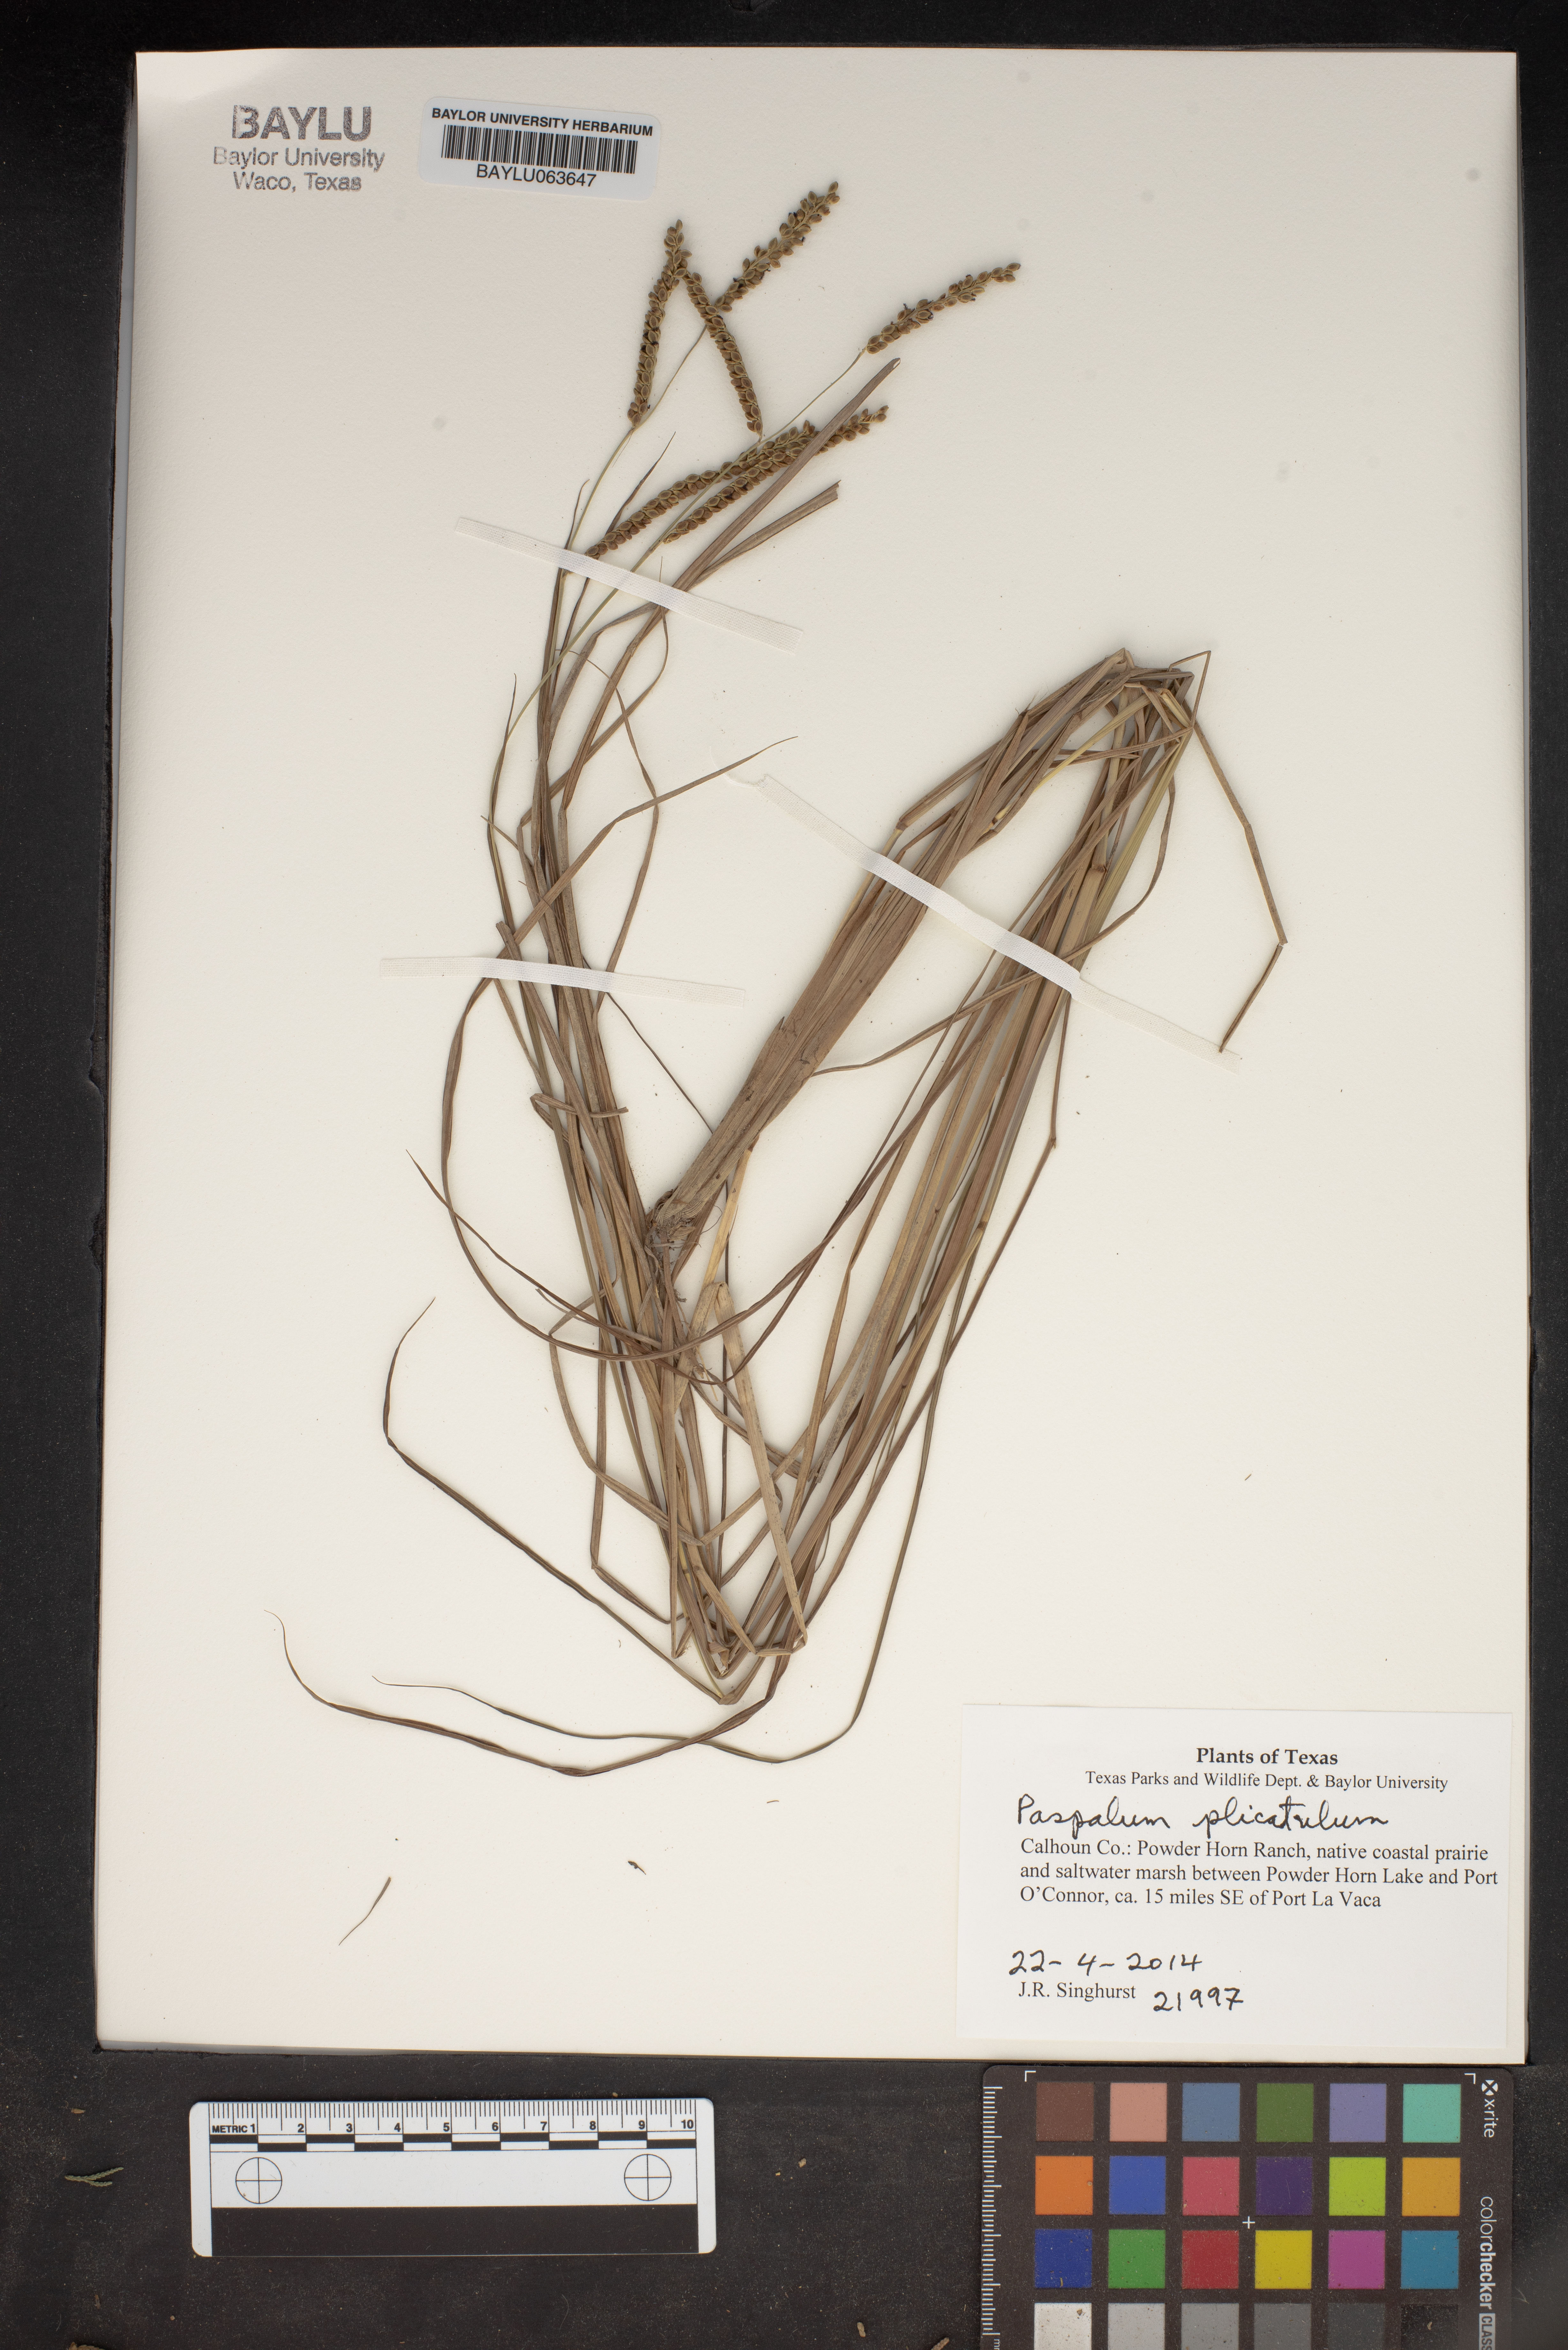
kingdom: Plantae
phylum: Tracheophyta
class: Liliopsida
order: Poales
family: Poaceae
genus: Paspalum
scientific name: Paspalum plicatulum
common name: Top paspalum
